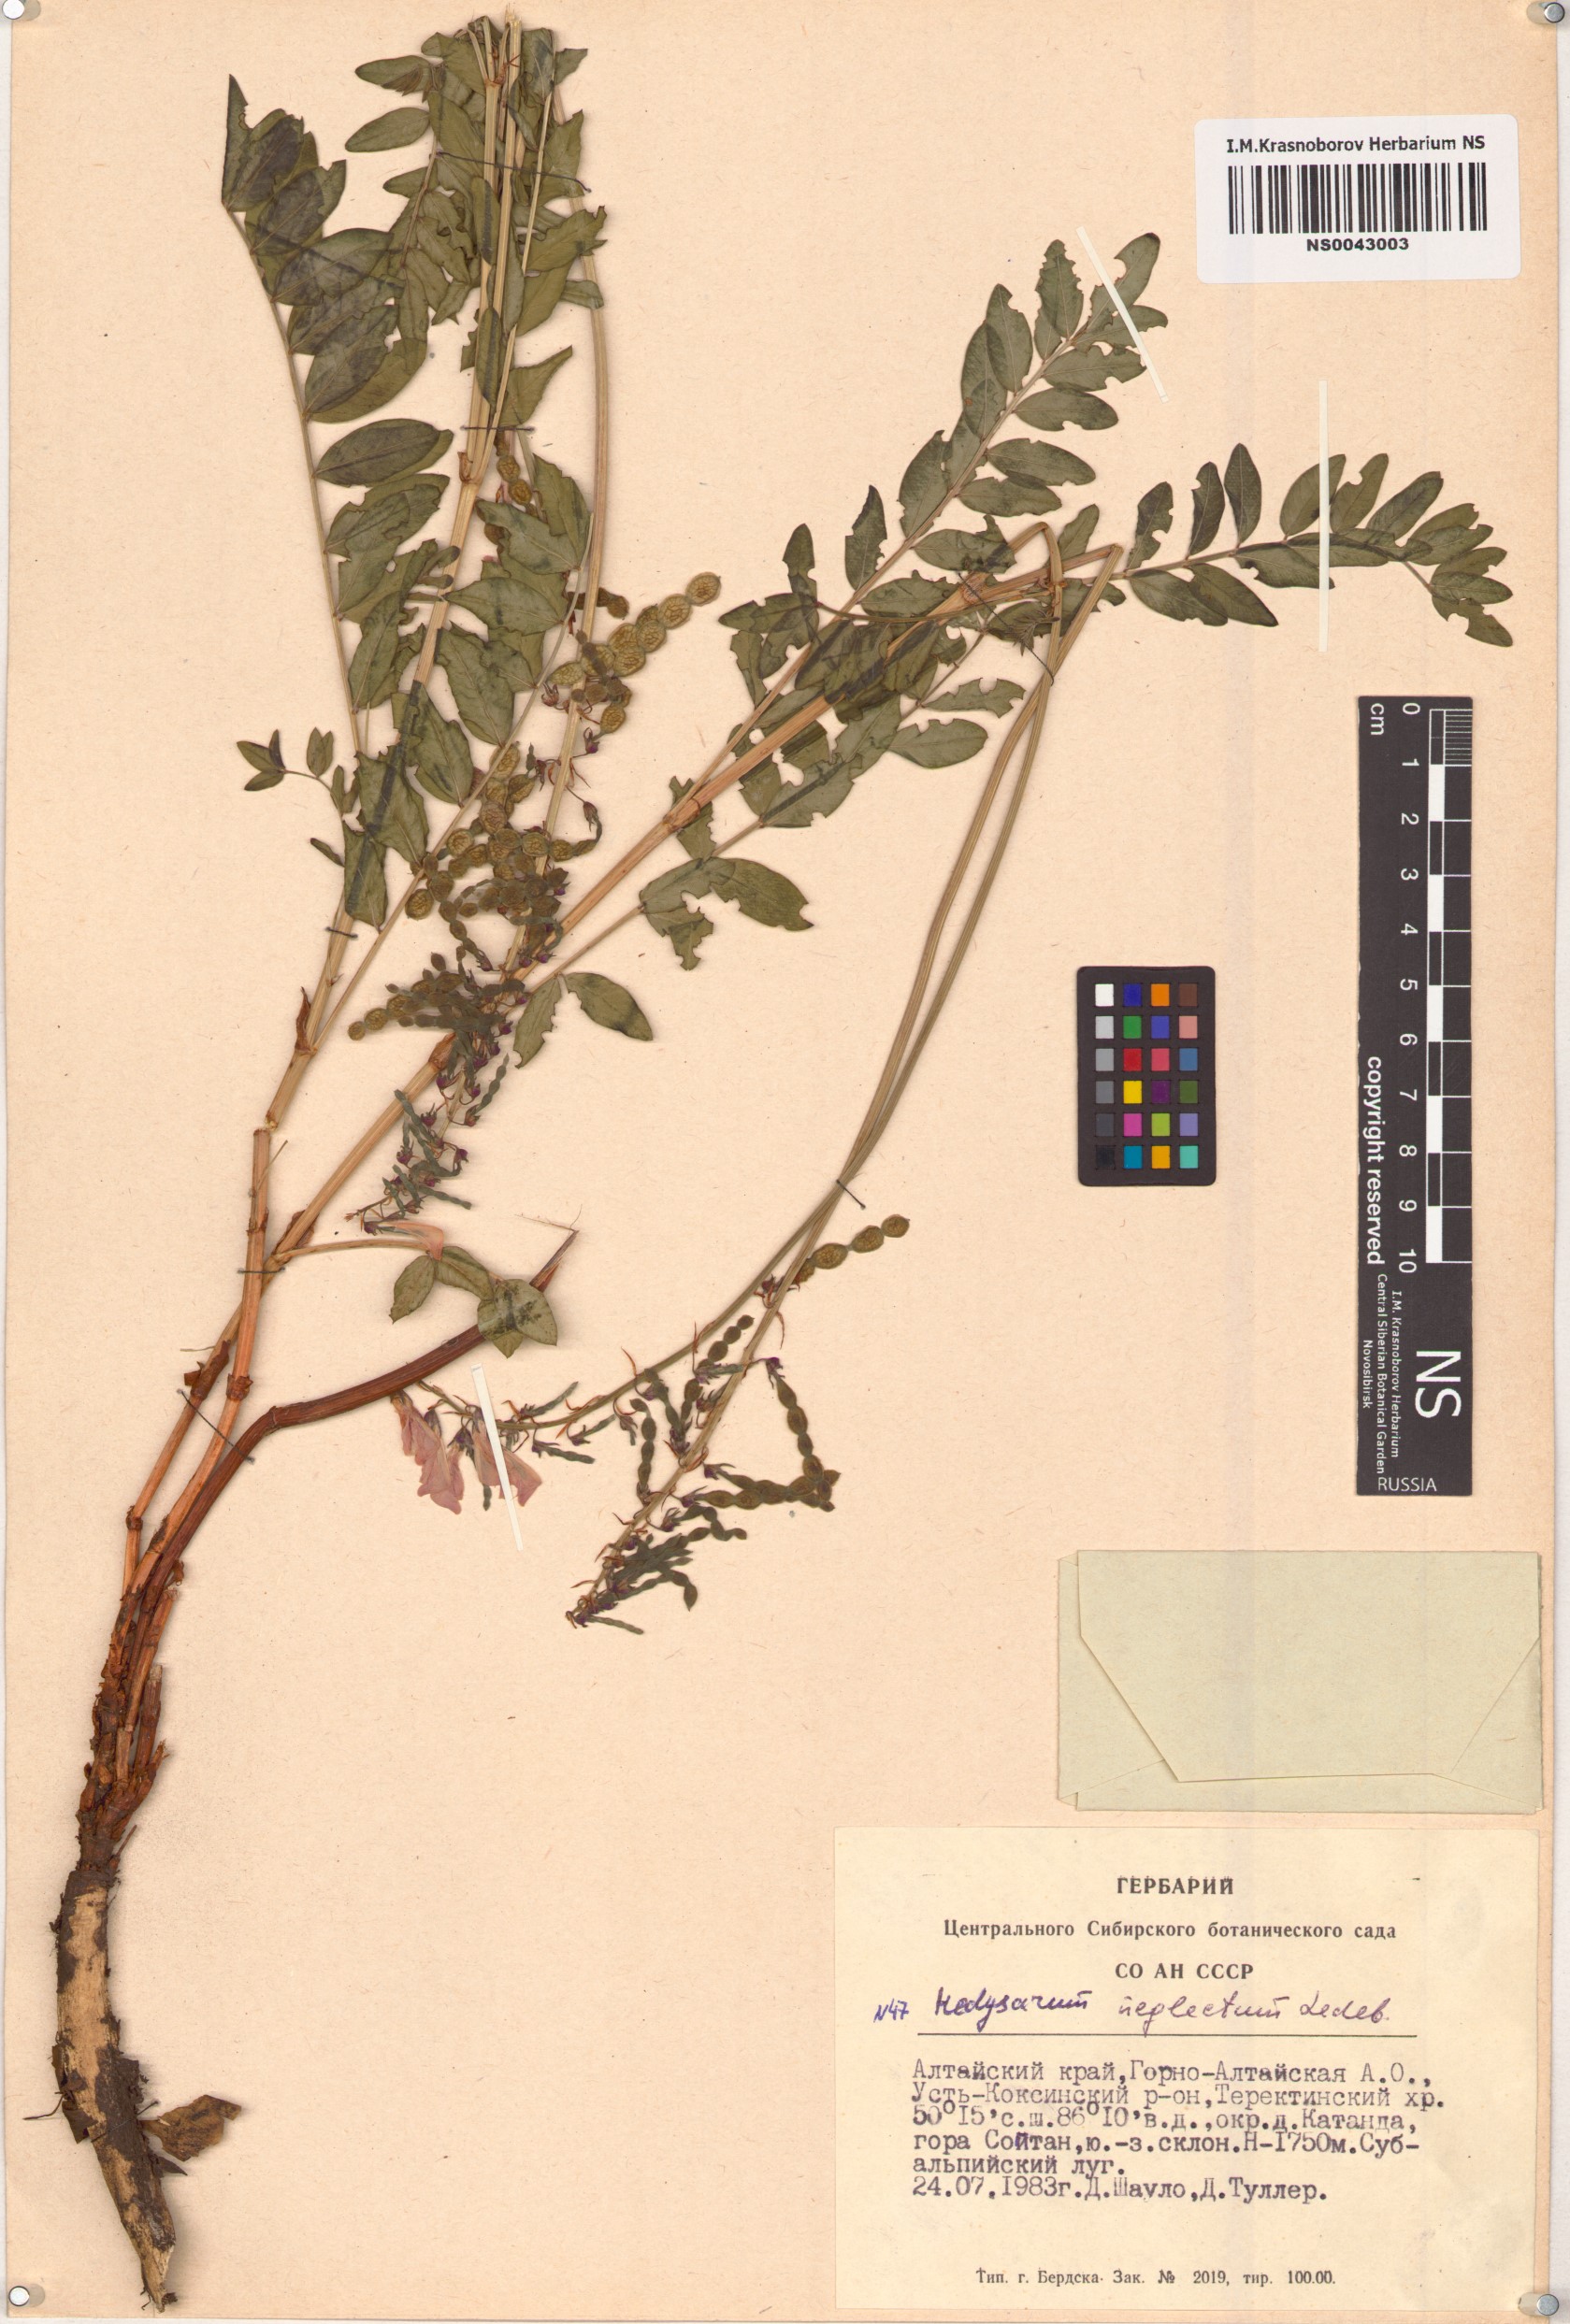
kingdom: Plantae
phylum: Tracheophyta
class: Magnoliopsida
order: Fabales
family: Fabaceae
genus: Hedysarum
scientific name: Hedysarum neglectum
